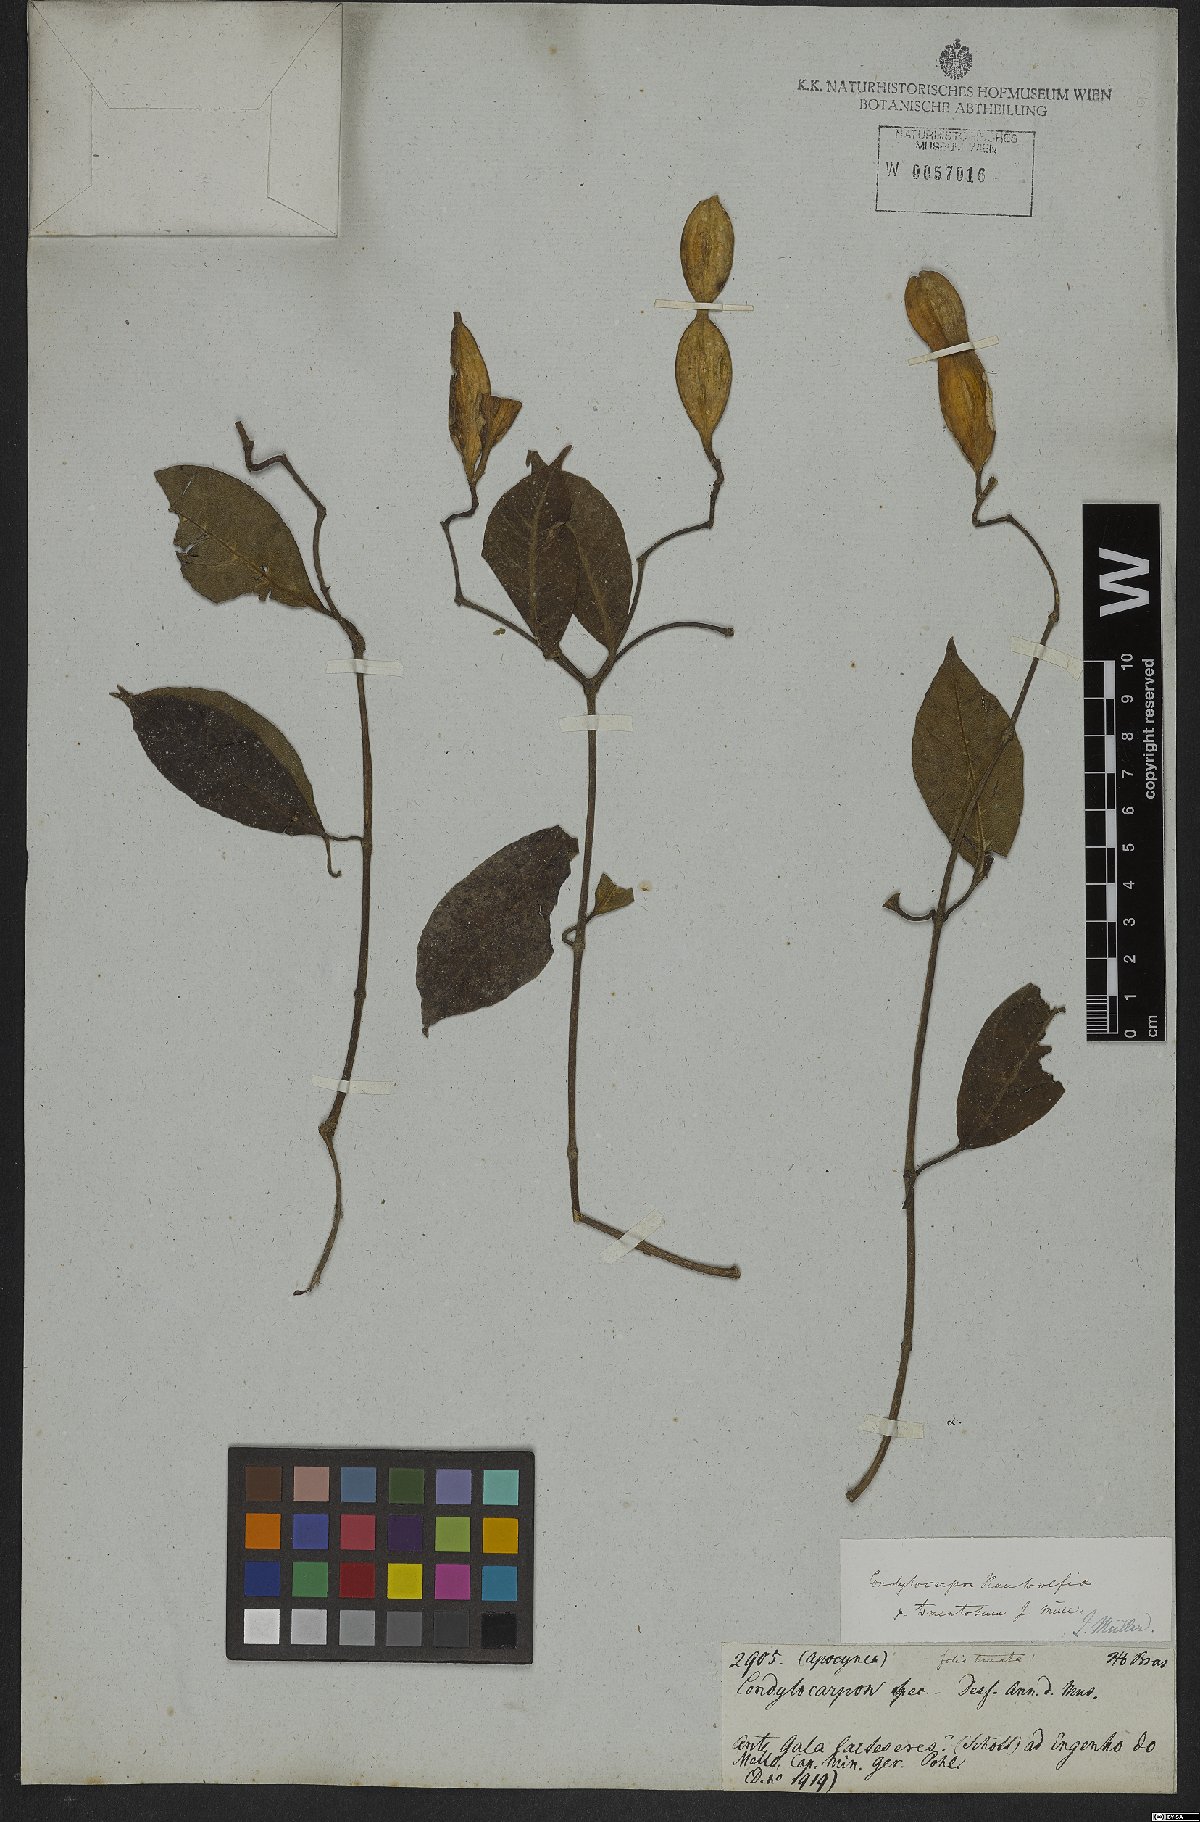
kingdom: Plantae
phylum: Tracheophyta
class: Magnoliopsida
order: Gentianales
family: Apocynaceae
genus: Condylocarpon
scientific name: Condylocarpon isthmicum
